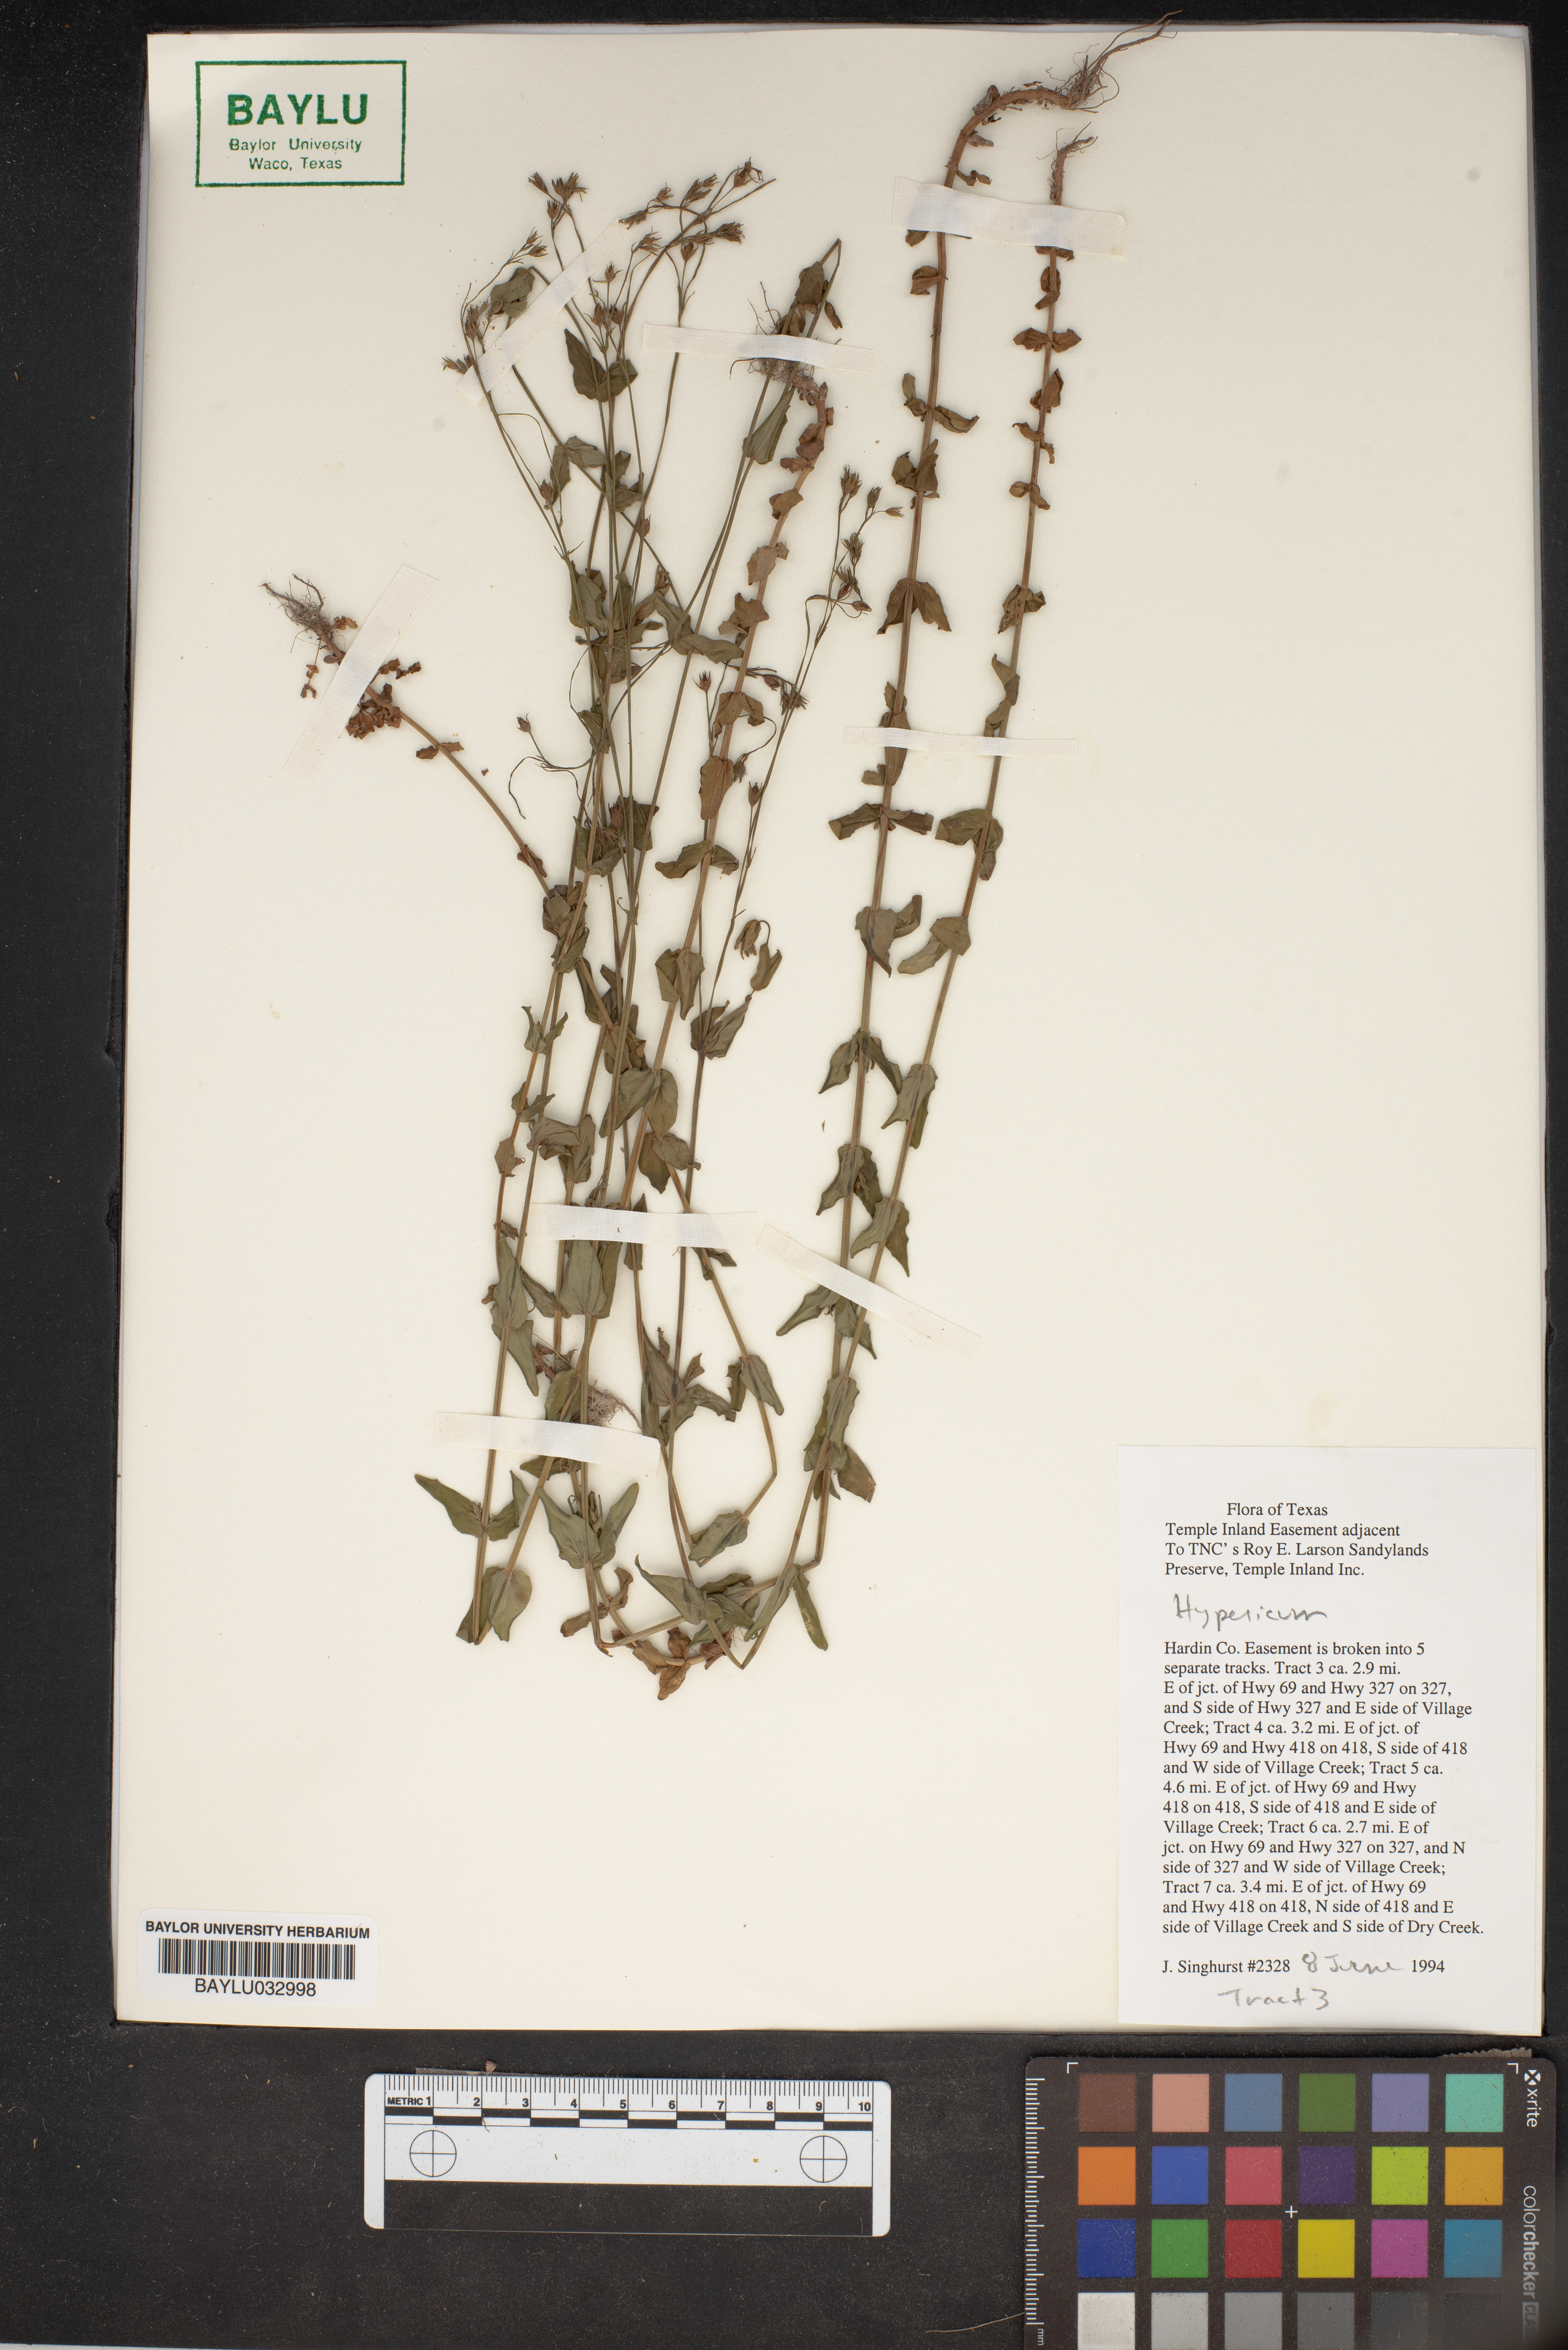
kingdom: Plantae
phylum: Tracheophyta
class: Magnoliopsida
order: Malpighiales
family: Hypericaceae
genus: Hypericum
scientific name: Hypericum
